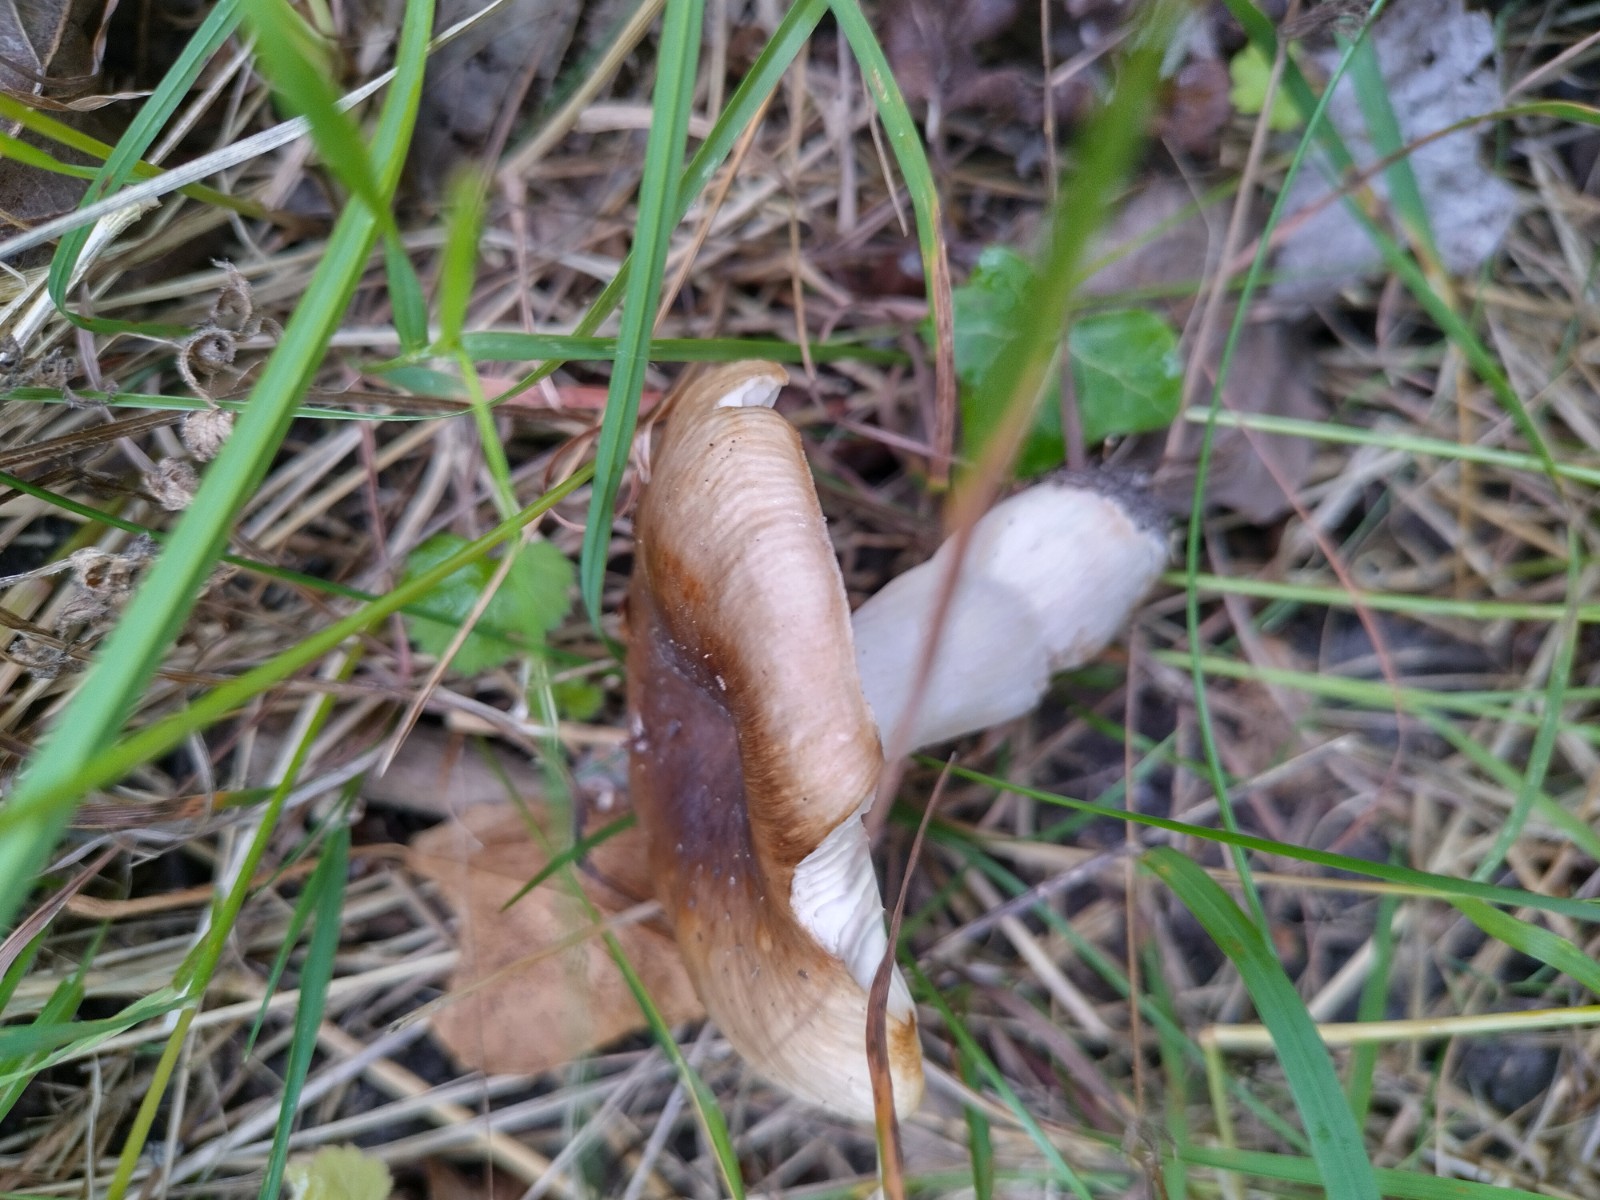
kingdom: Fungi
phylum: Basidiomycota
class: Agaricomycetes
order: Russulales
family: Russulaceae
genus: Russula
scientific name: Russula
